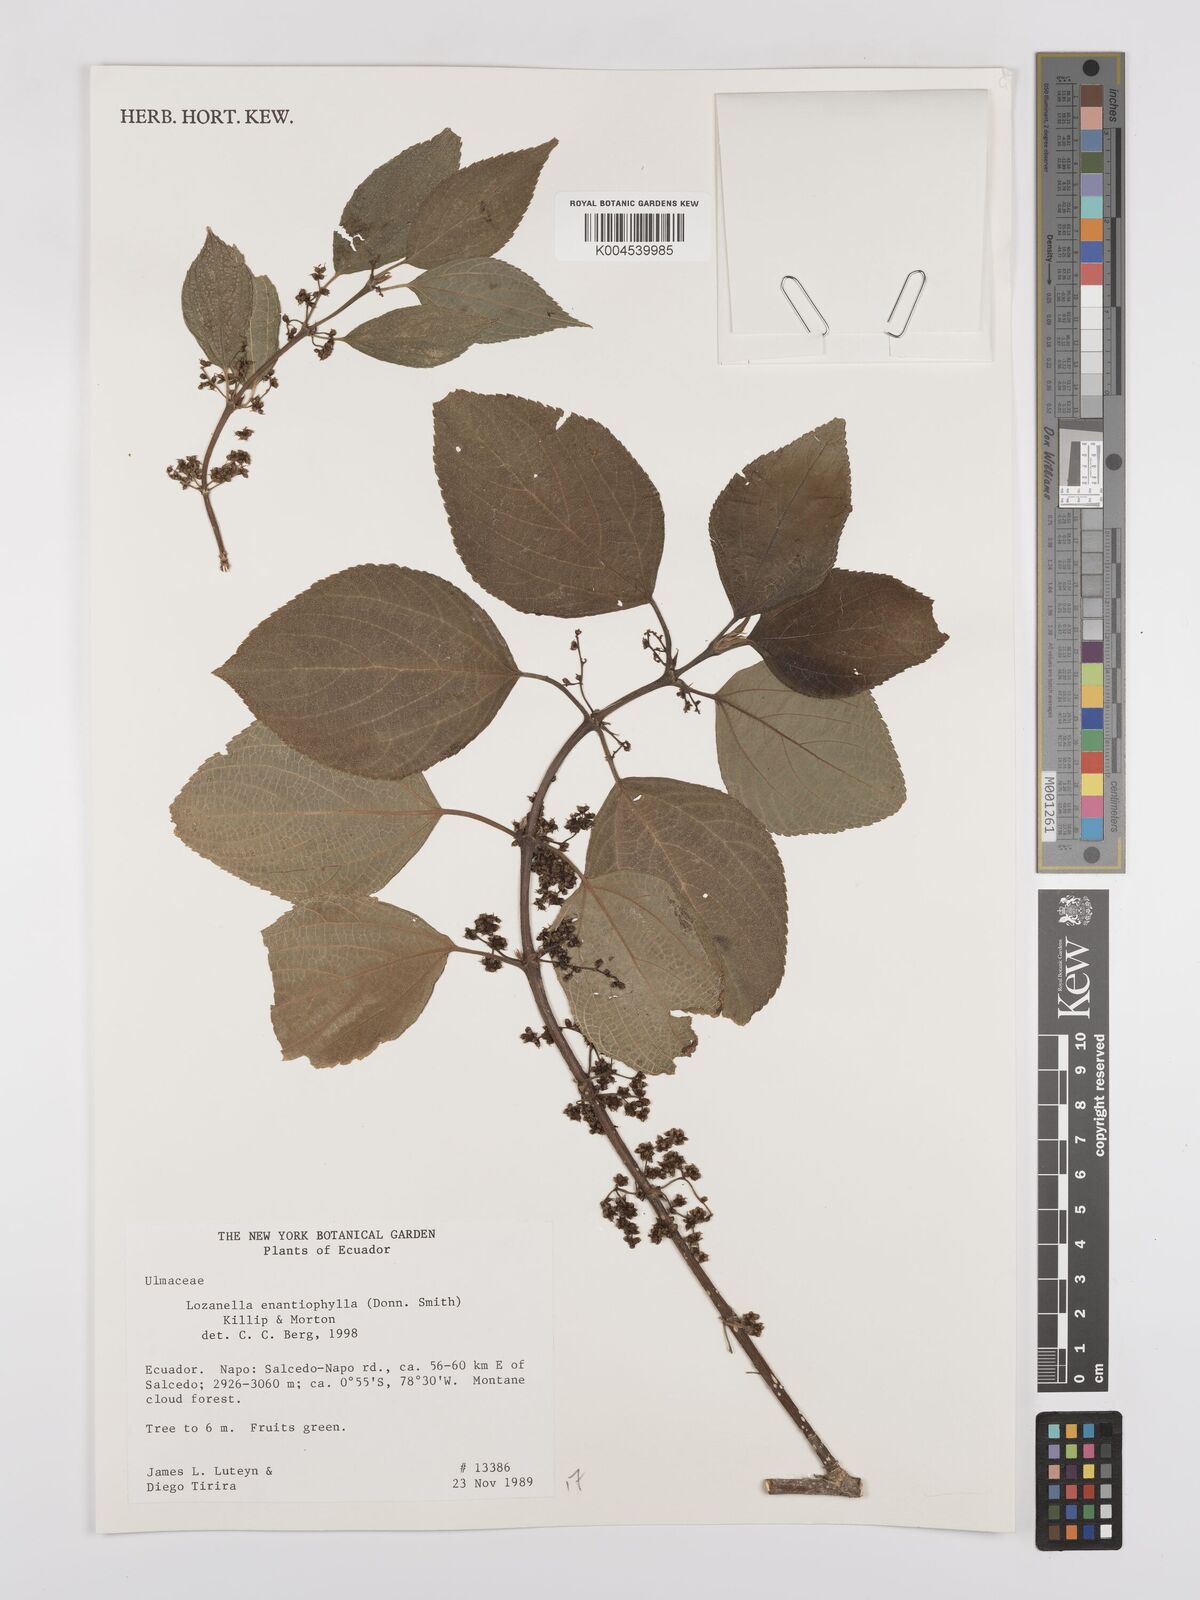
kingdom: Plantae
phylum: Tracheophyta
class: Magnoliopsida
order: Rosales
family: Cannabaceae
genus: Lozanella
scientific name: Lozanella enantiophylla
